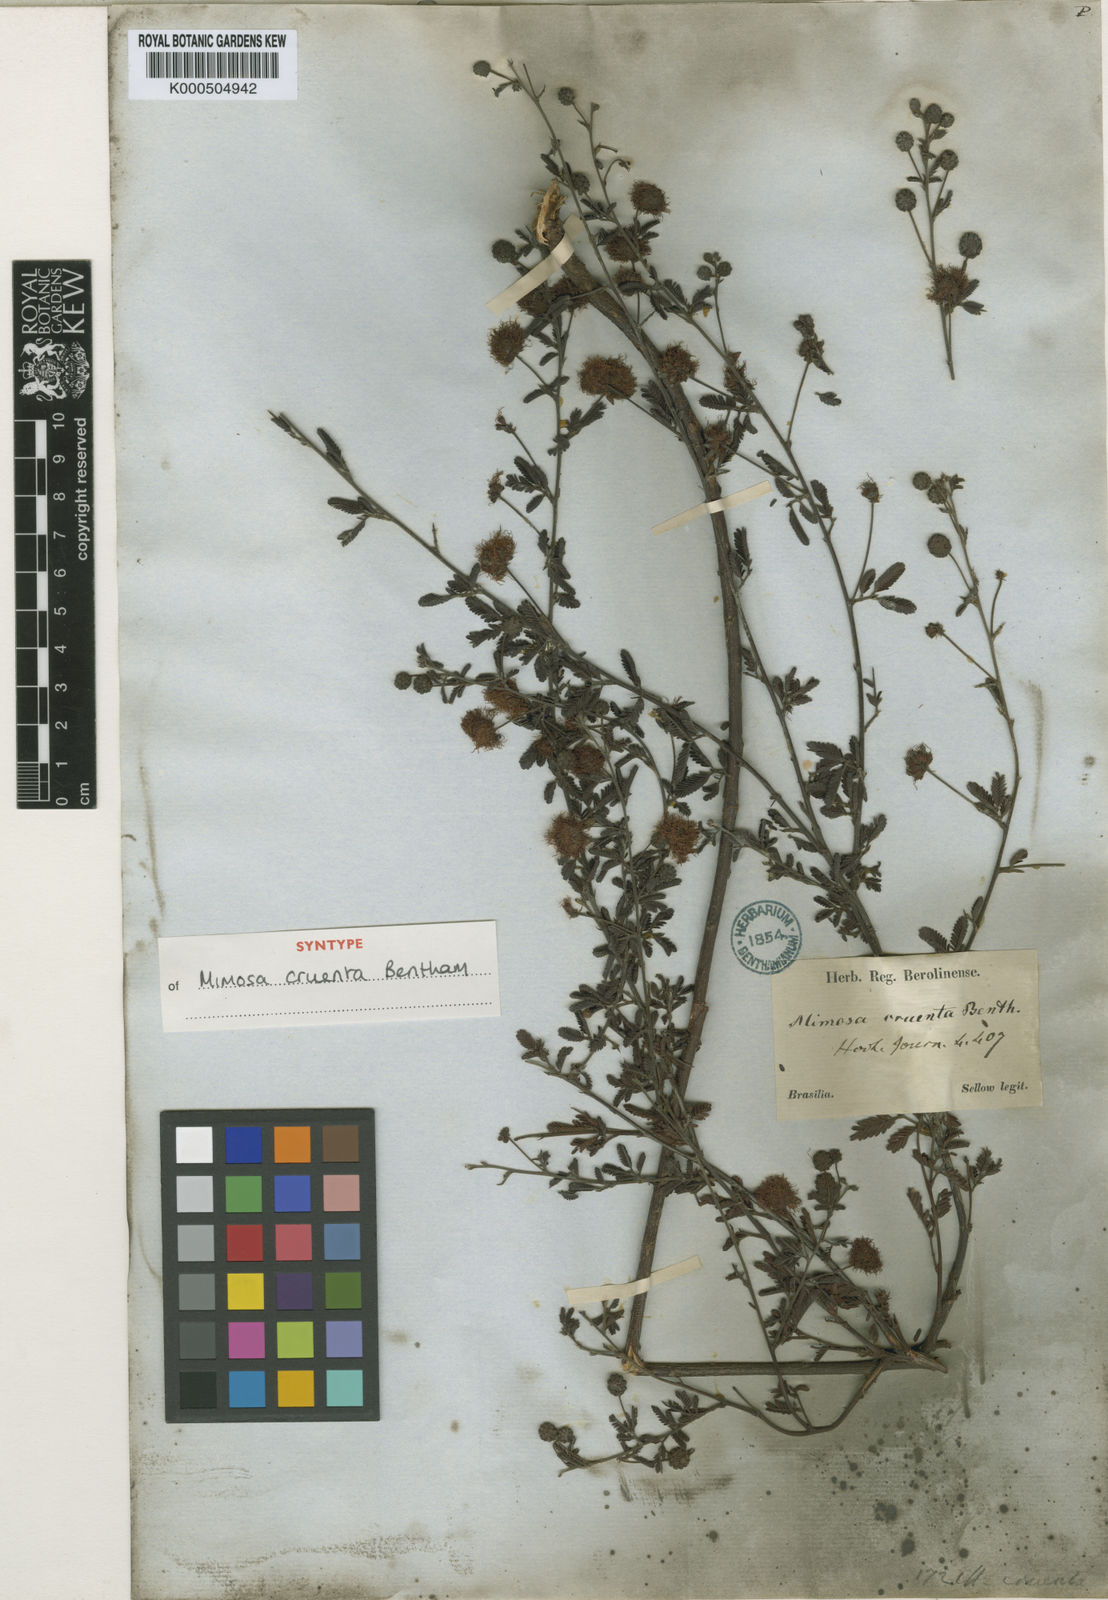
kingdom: Plantae
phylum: Tracheophyta
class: Magnoliopsida
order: Fabales
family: Fabaceae
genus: Mimosa
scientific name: Mimosa sanguinolenta
